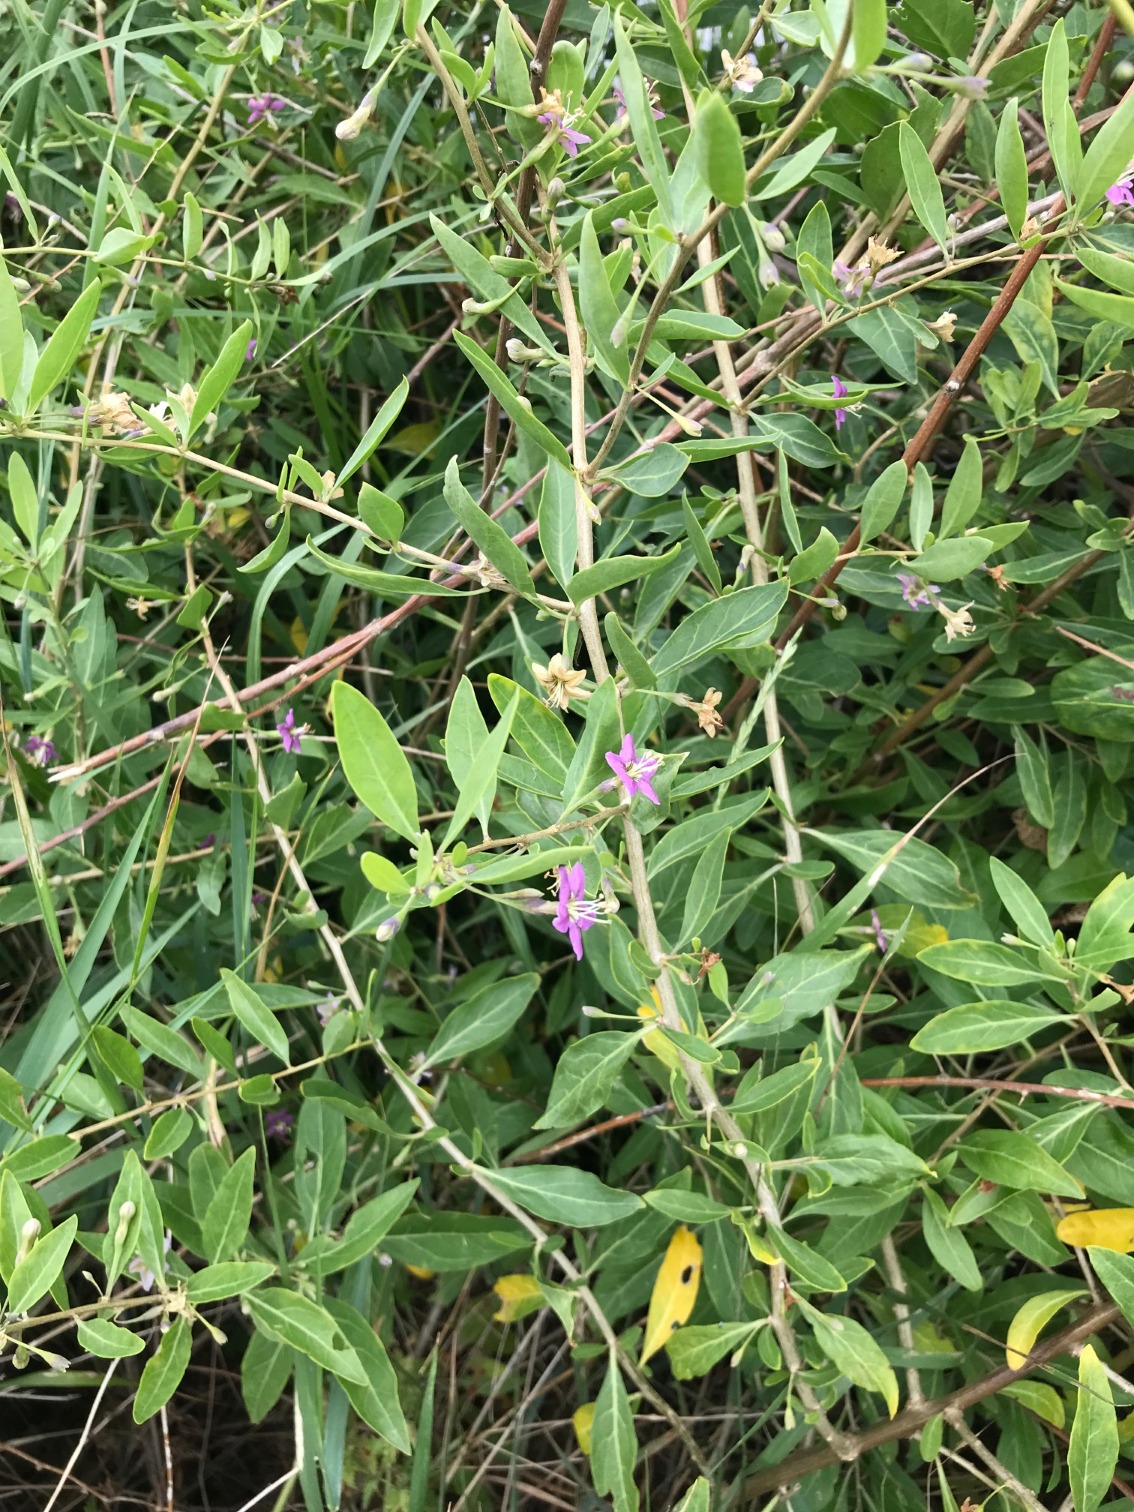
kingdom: Plantae
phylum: Tracheophyta
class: Magnoliopsida
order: Solanales
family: Solanaceae
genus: Lycium
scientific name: Lycium barbarum
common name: Bukketorn
